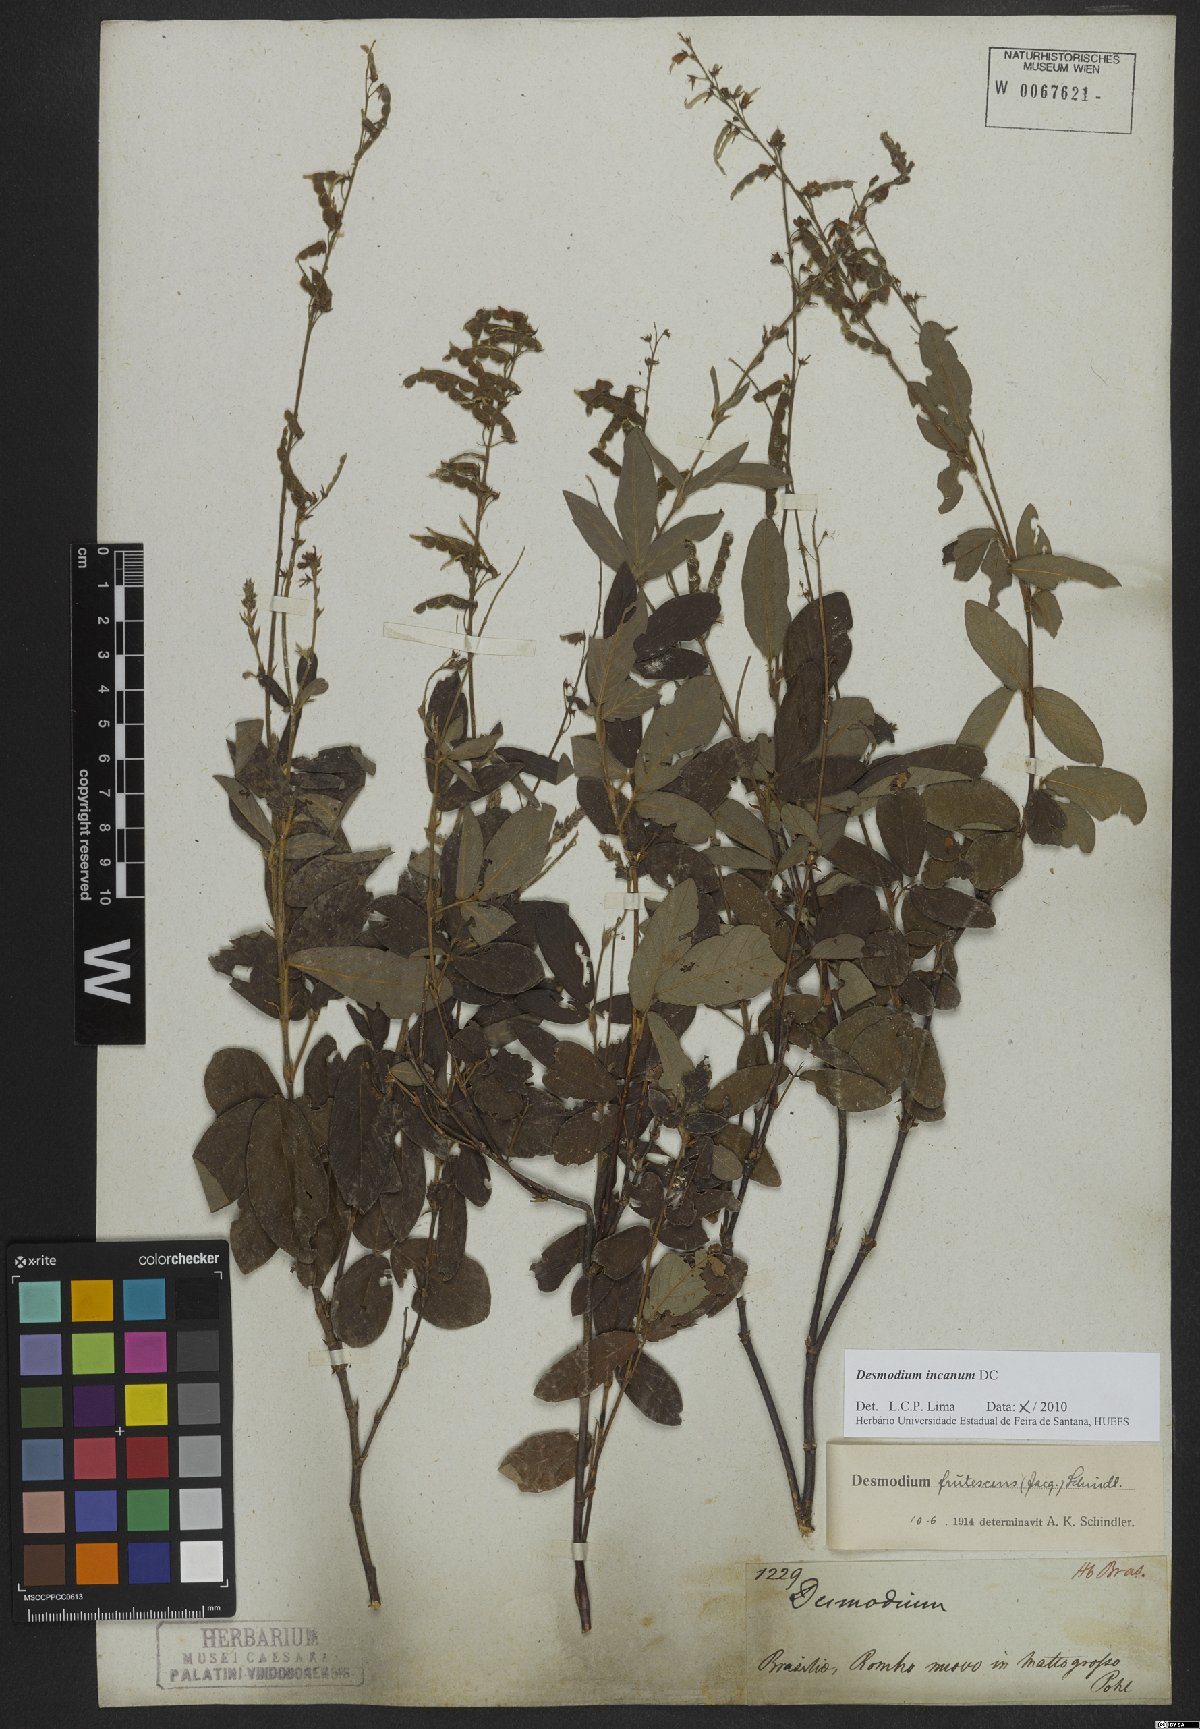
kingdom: Plantae
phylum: Tracheophyta
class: Magnoliopsida
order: Fabales
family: Fabaceae
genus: Desmodium
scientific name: Desmodium incanum
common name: Tickclover
